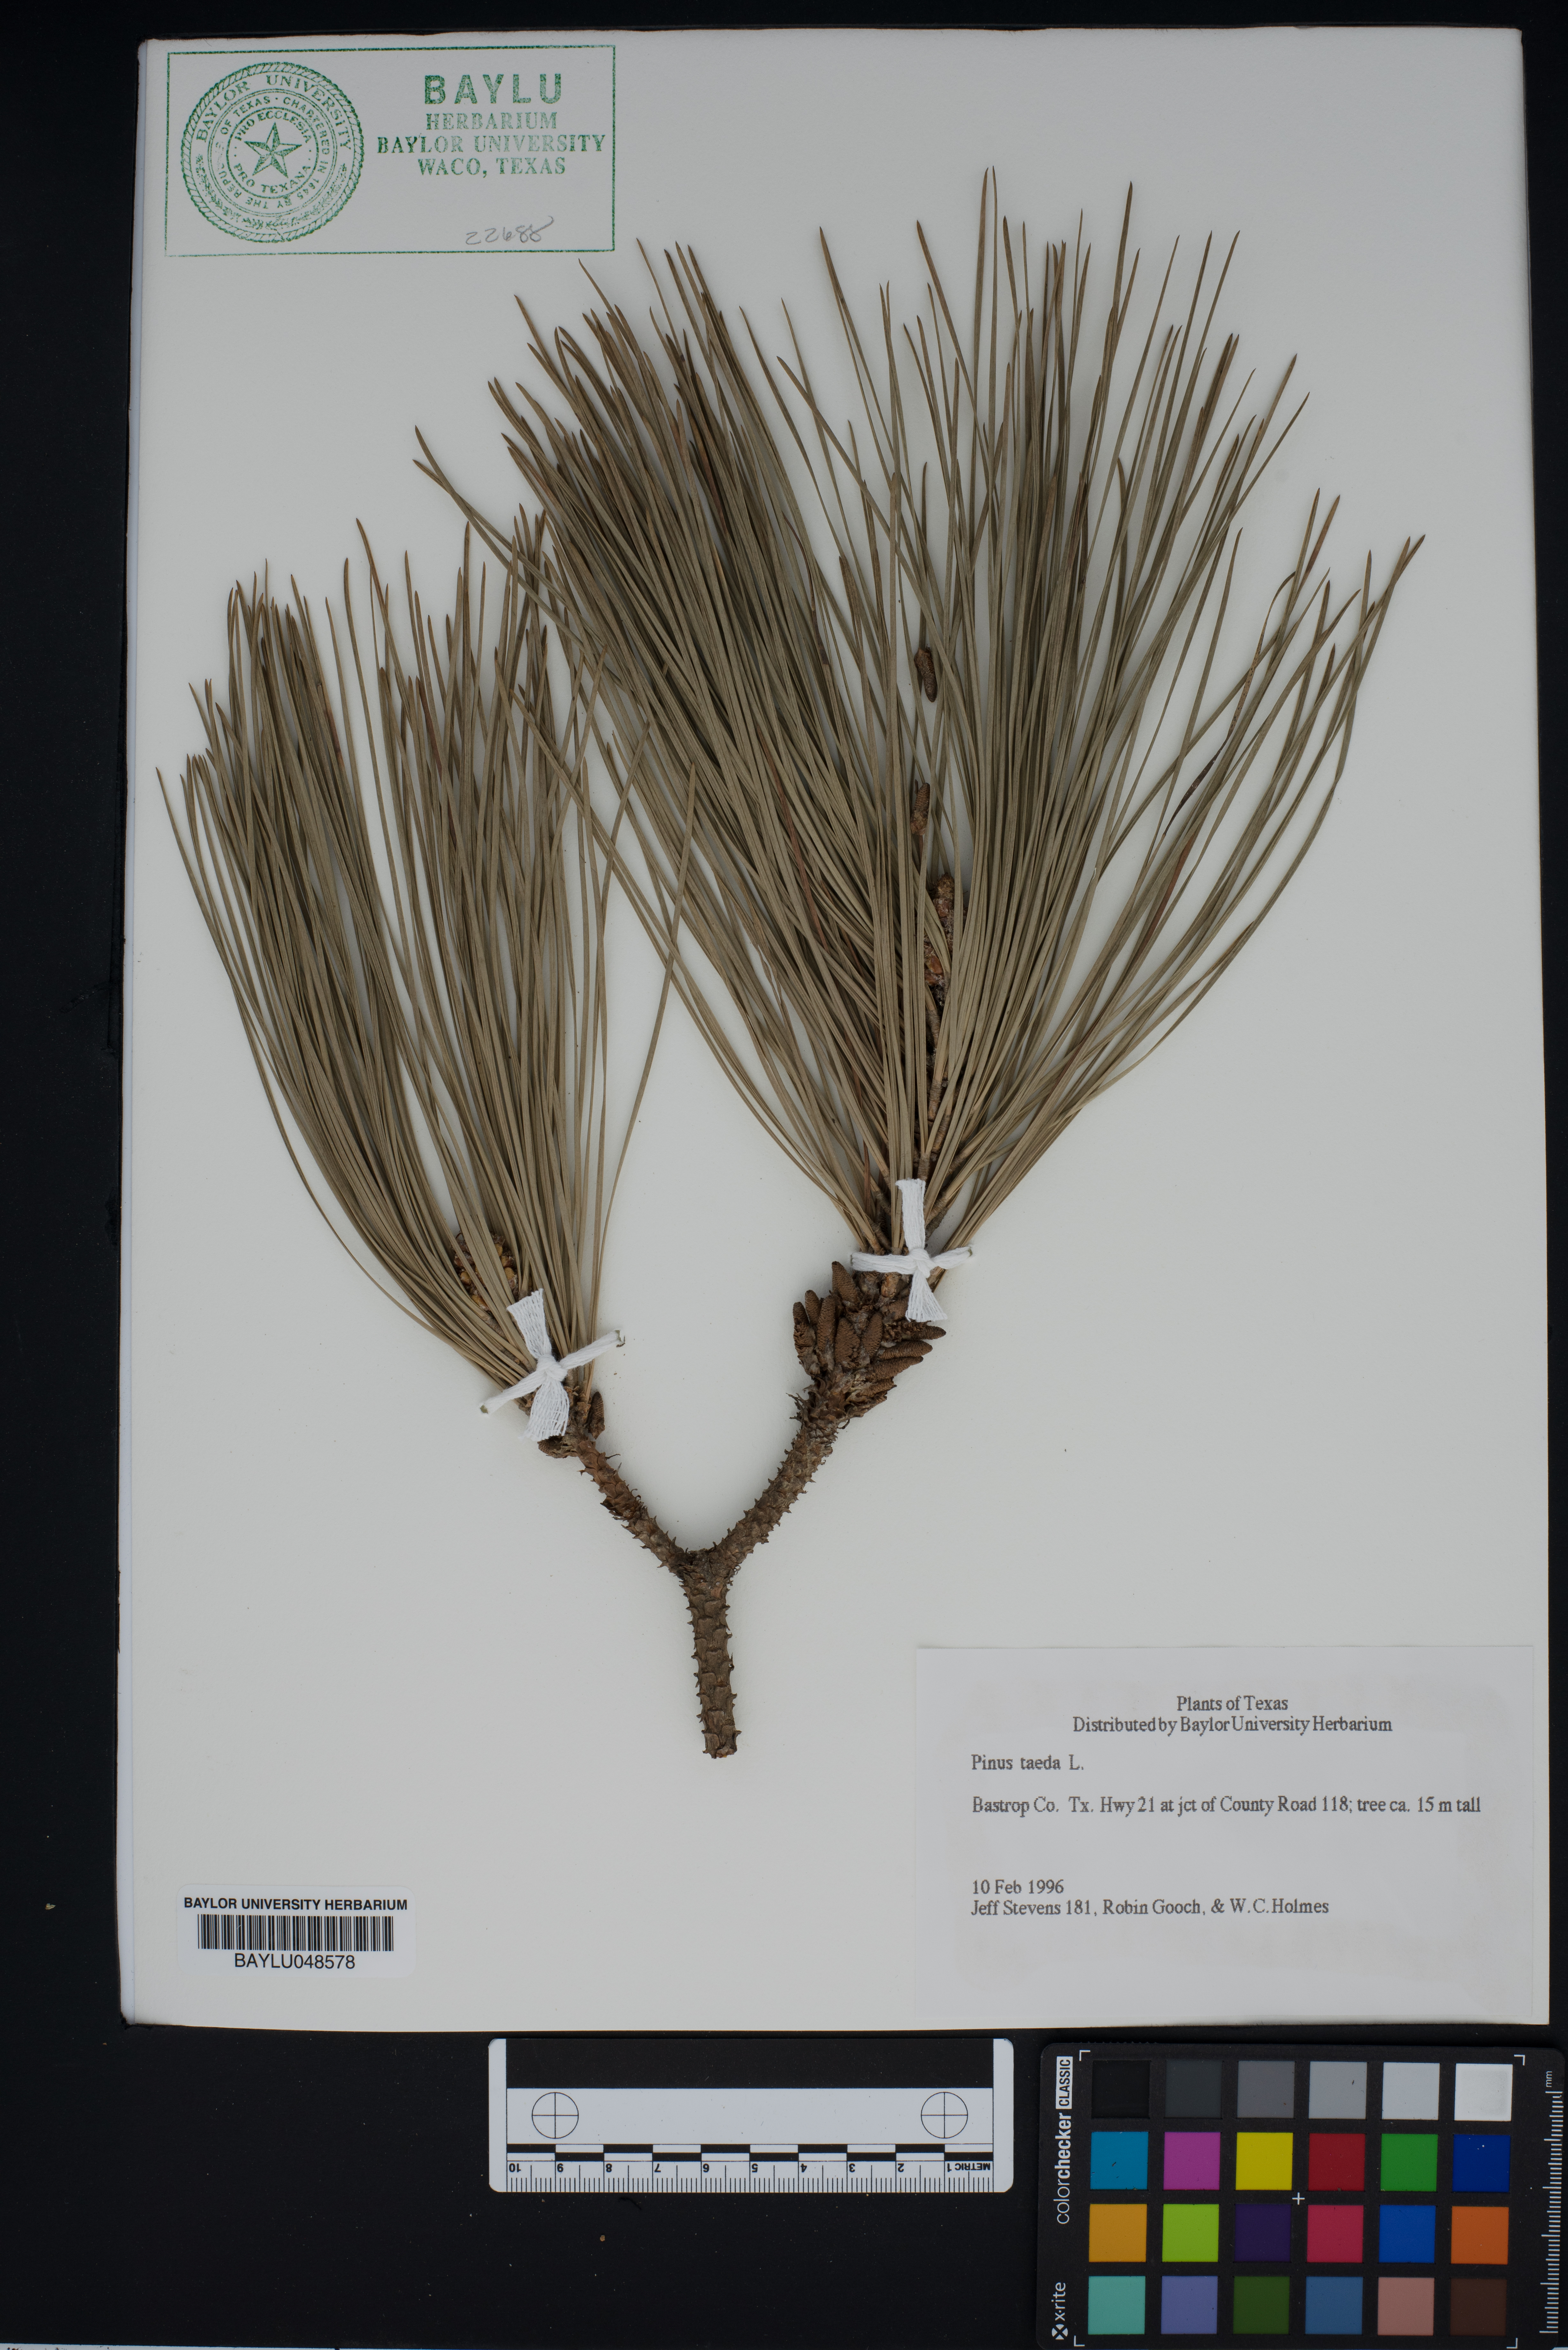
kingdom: Plantae
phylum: Tracheophyta
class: Pinopsida
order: Pinales
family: Pinaceae
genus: Pinus
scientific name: Pinus taeda
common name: Loblolly pine
